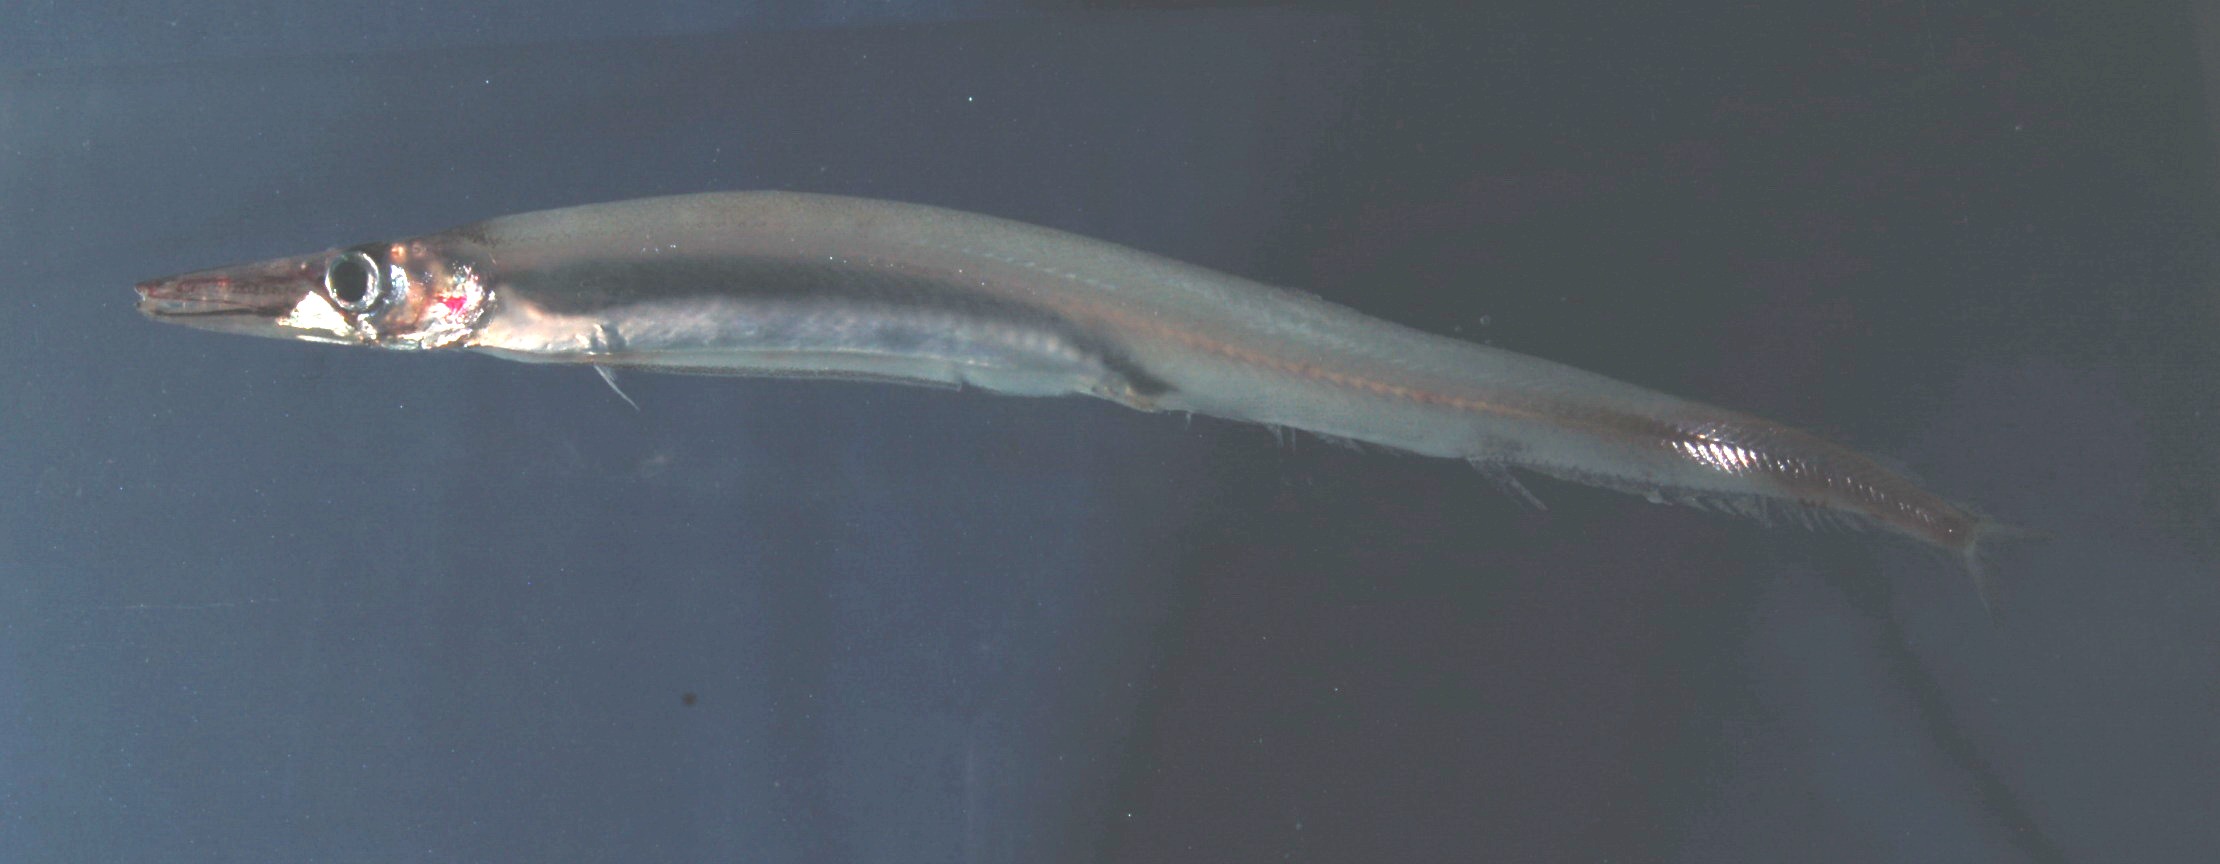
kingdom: Animalia
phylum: Chordata
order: Aulopiformes
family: Paralepididae
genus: Lestrolepis
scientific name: Lestrolepis intermedia
